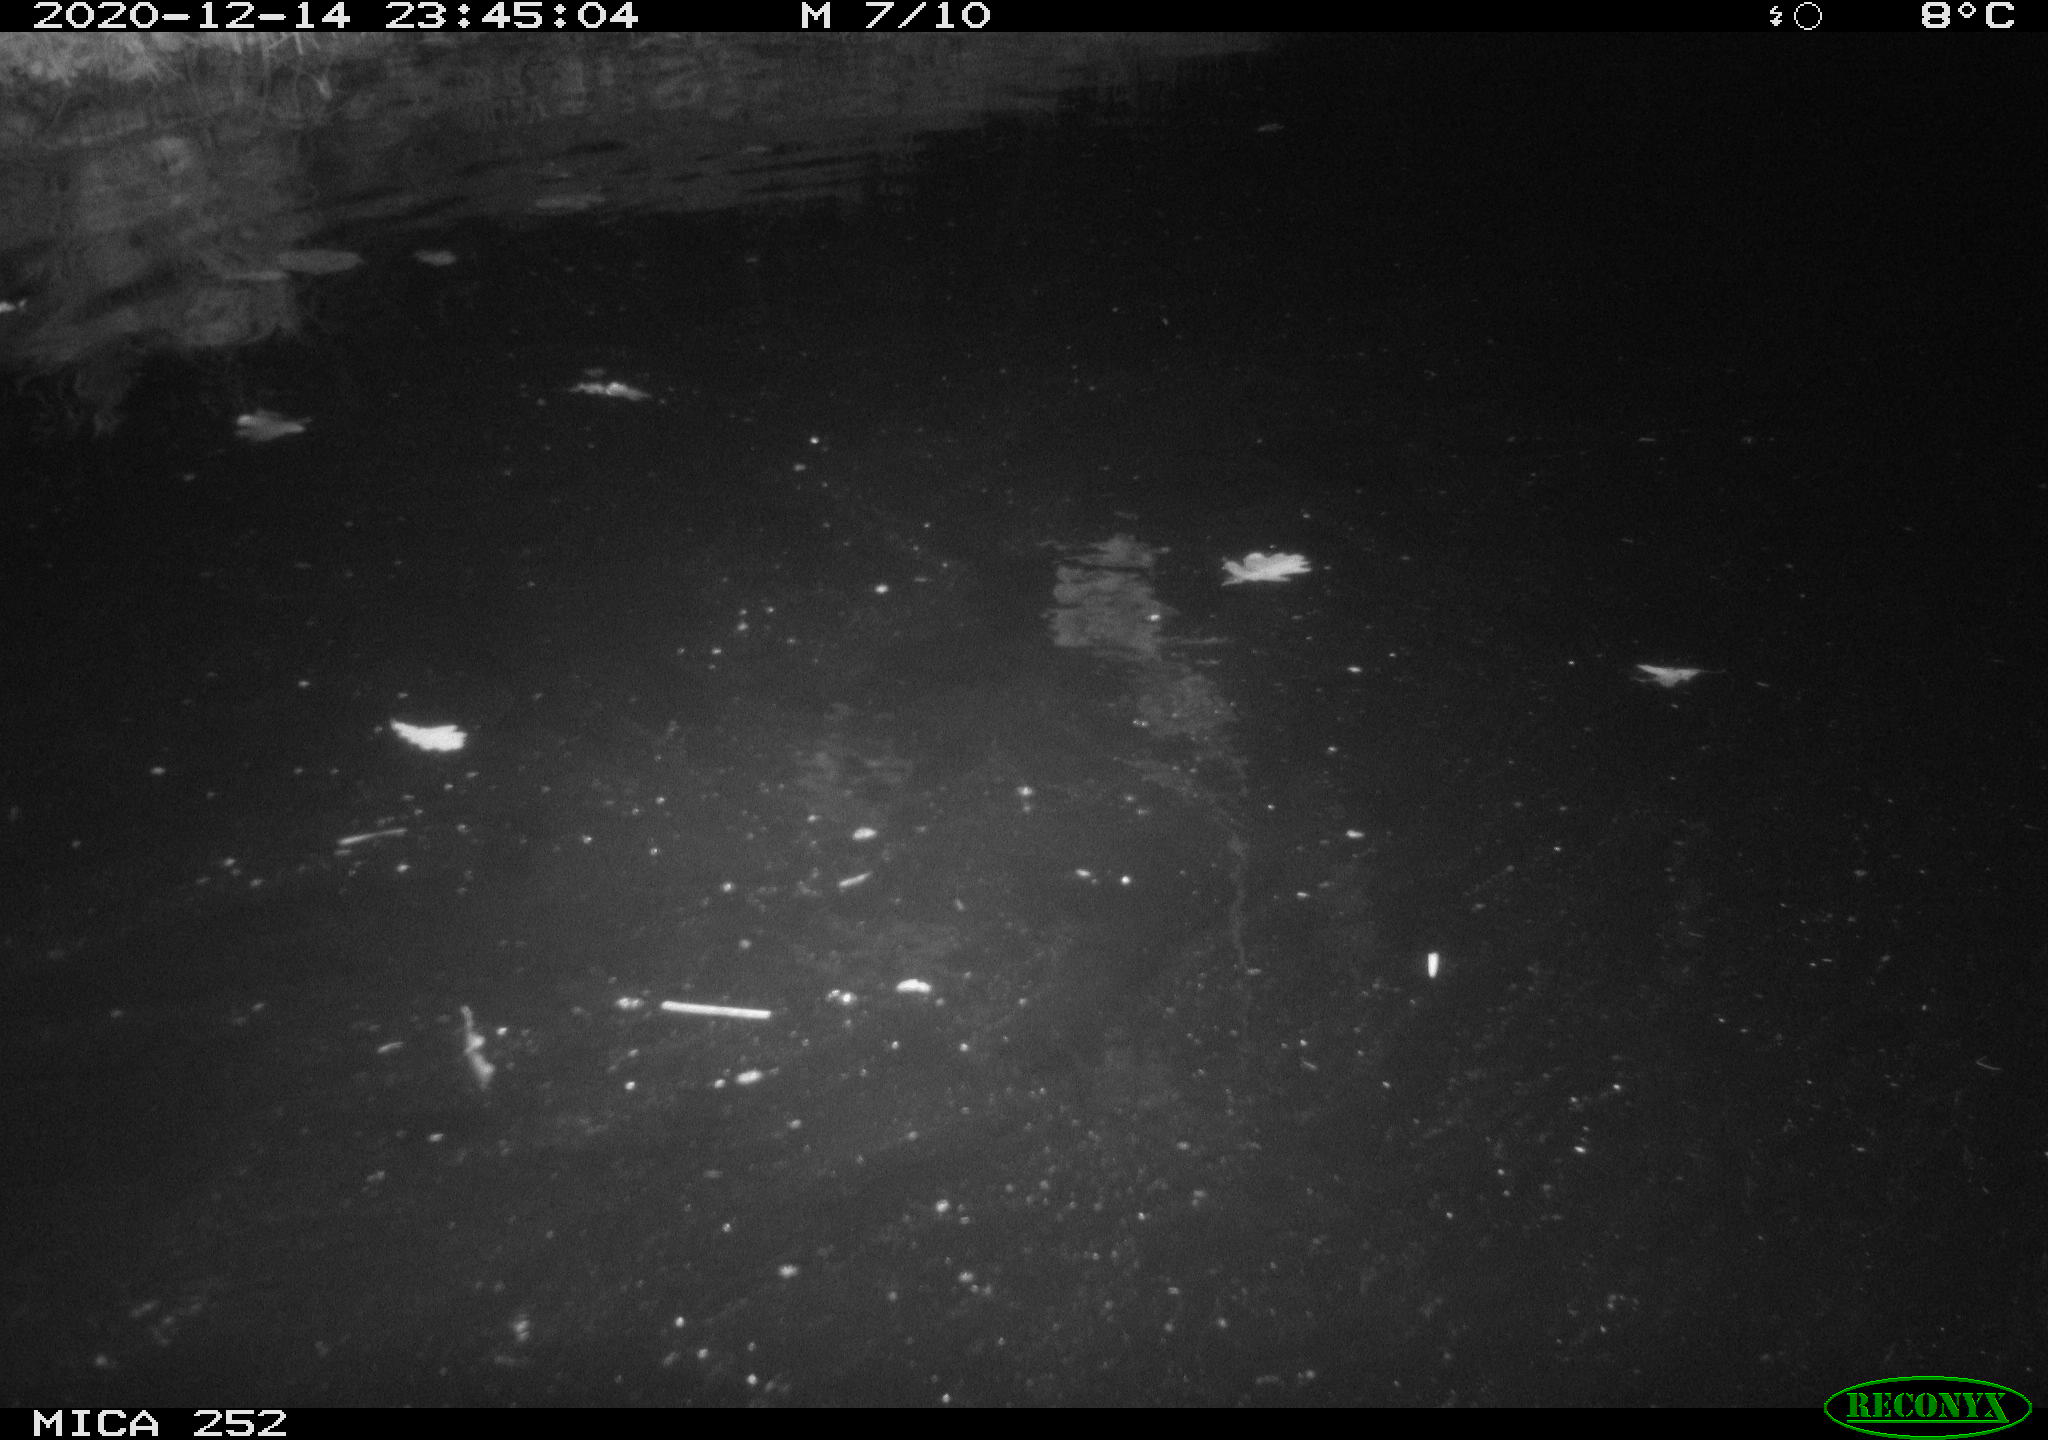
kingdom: Animalia
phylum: Chordata
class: Mammalia
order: Rodentia
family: Castoridae
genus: Castor
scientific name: Castor fiber
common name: Eurasian beaver
